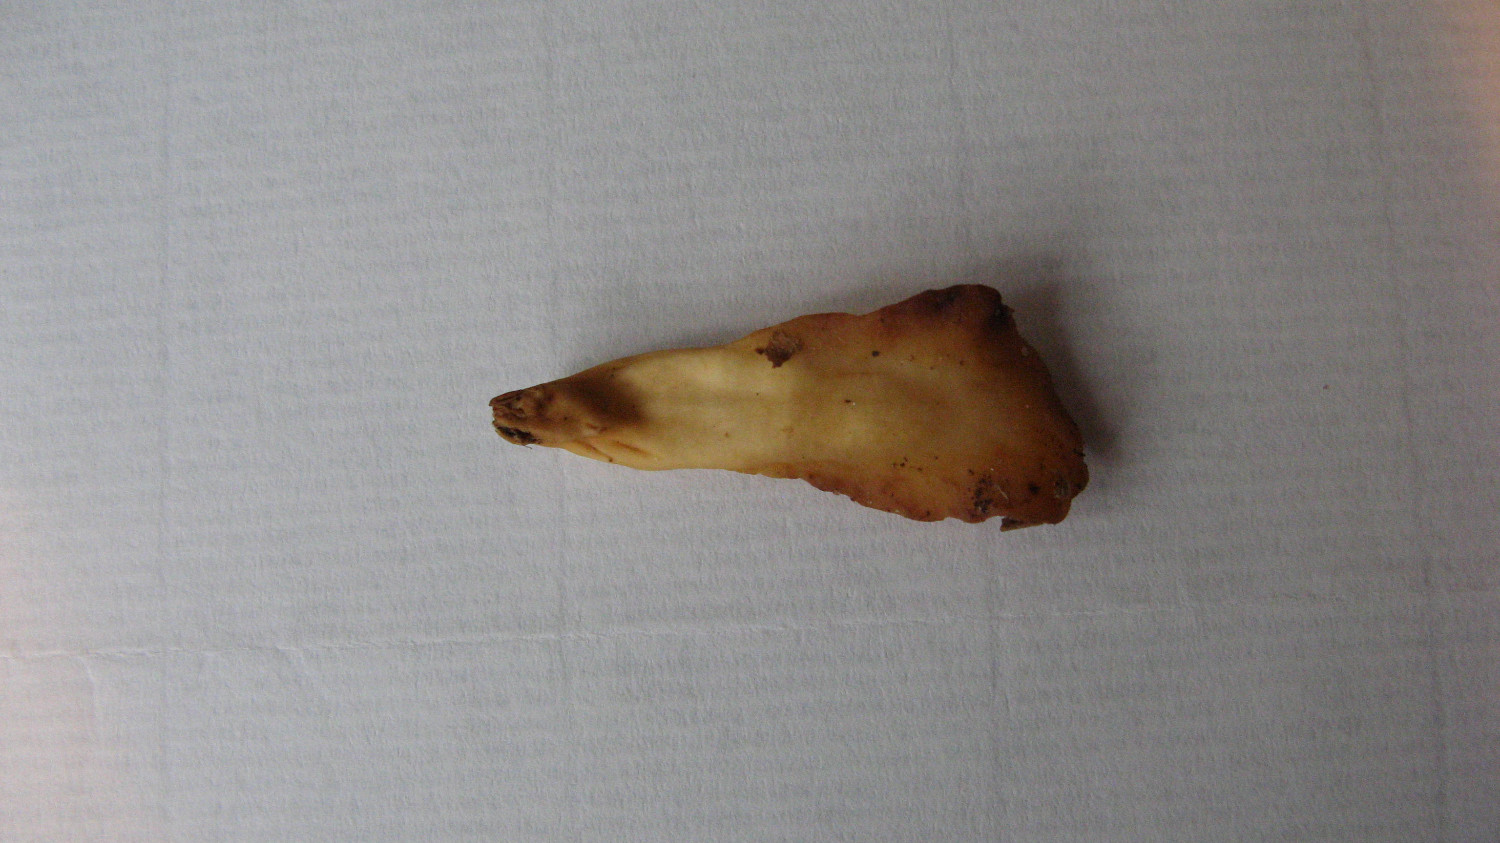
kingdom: Fungi
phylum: Ascomycota
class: Leotiomycetes
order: Rhytismatales
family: Cudoniaceae
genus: Spathularia
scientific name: Spathularia flavida
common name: gul spatelsvamp
